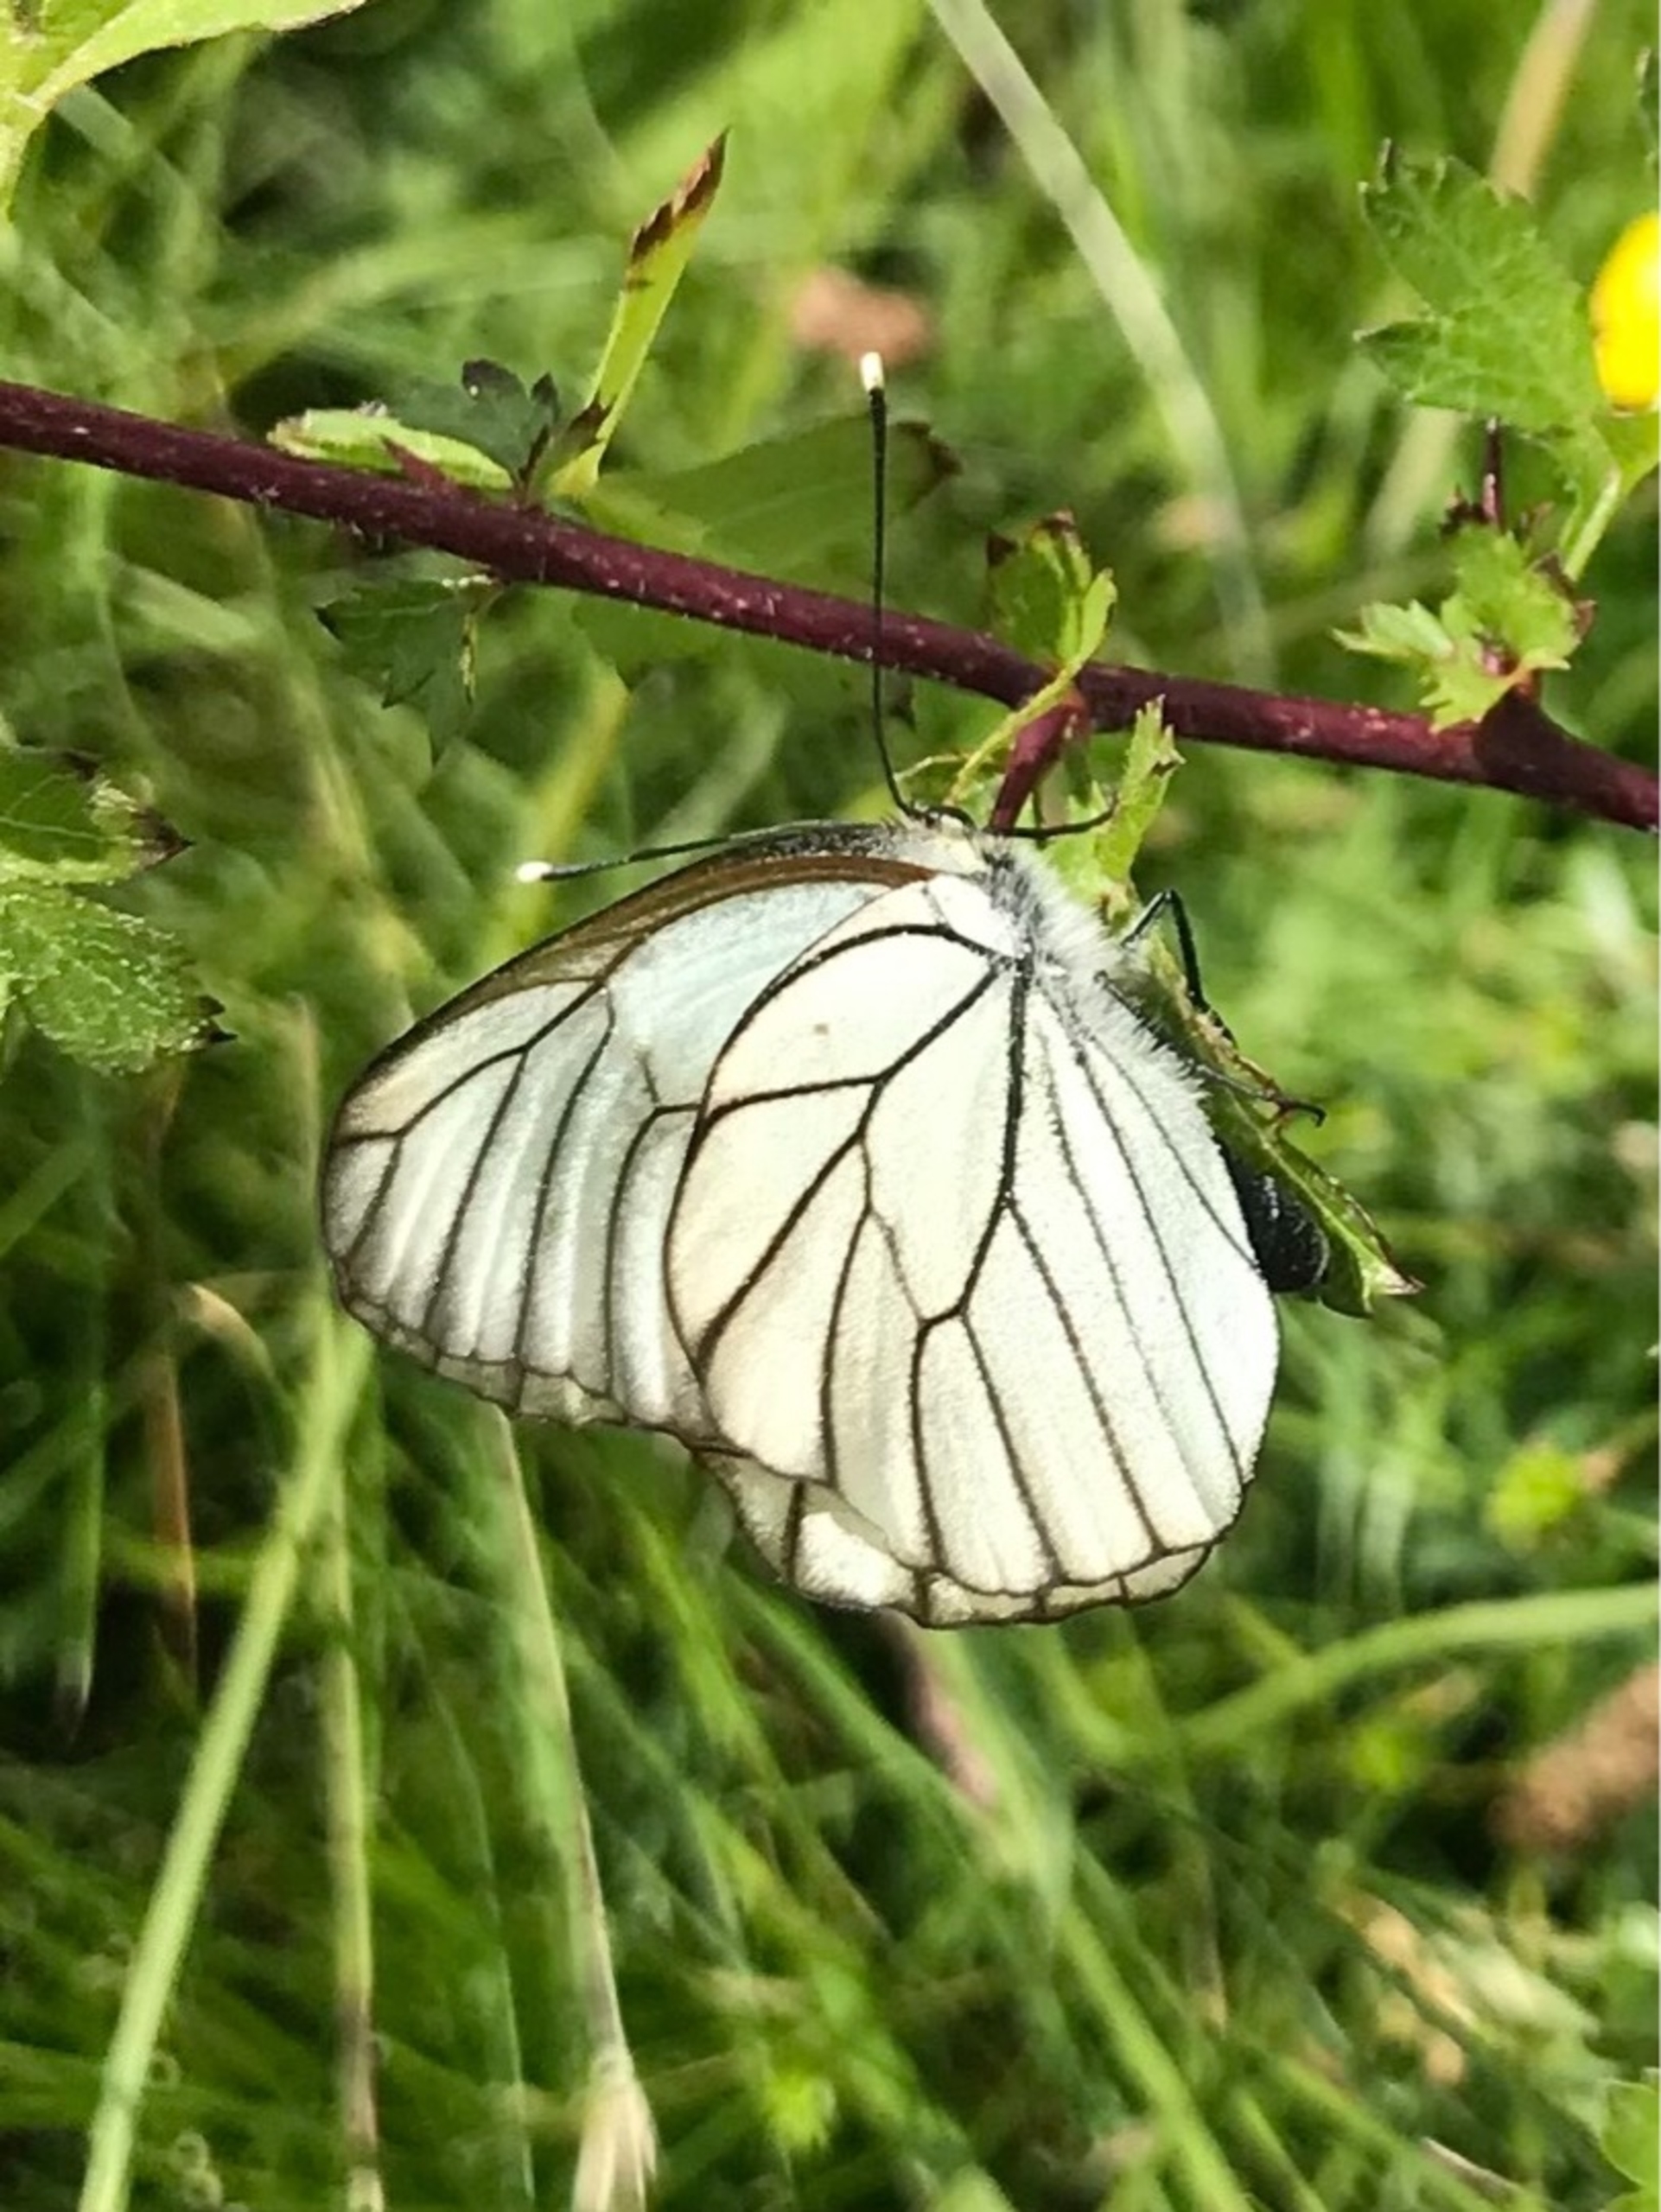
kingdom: Animalia
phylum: Arthropoda
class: Insecta
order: Lepidoptera
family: Pieridae
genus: Aporia
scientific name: Aporia crataegi
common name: Sortåret hvidvinge
